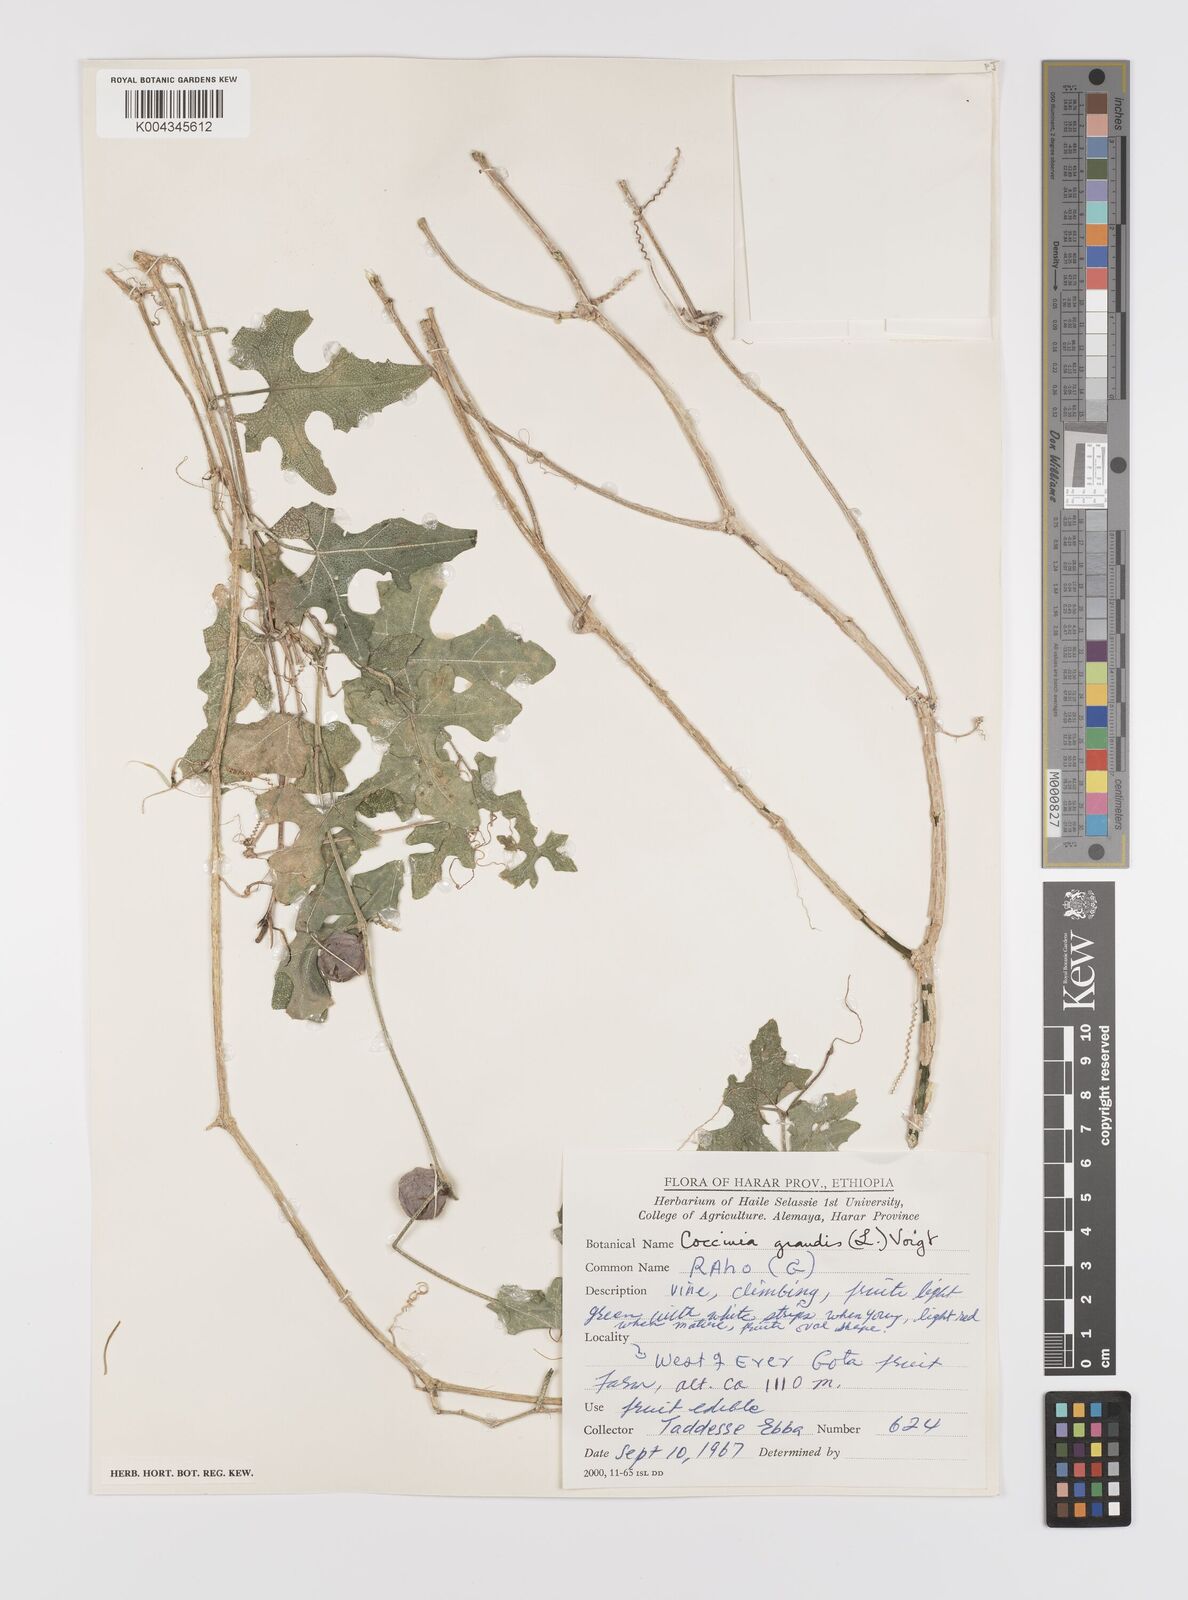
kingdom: Plantae
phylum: Tracheophyta
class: Magnoliopsida
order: Cucurbitales
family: Cucurbitaceae
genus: Coccinia
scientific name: Coccinia grandis
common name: Ivy gourd
